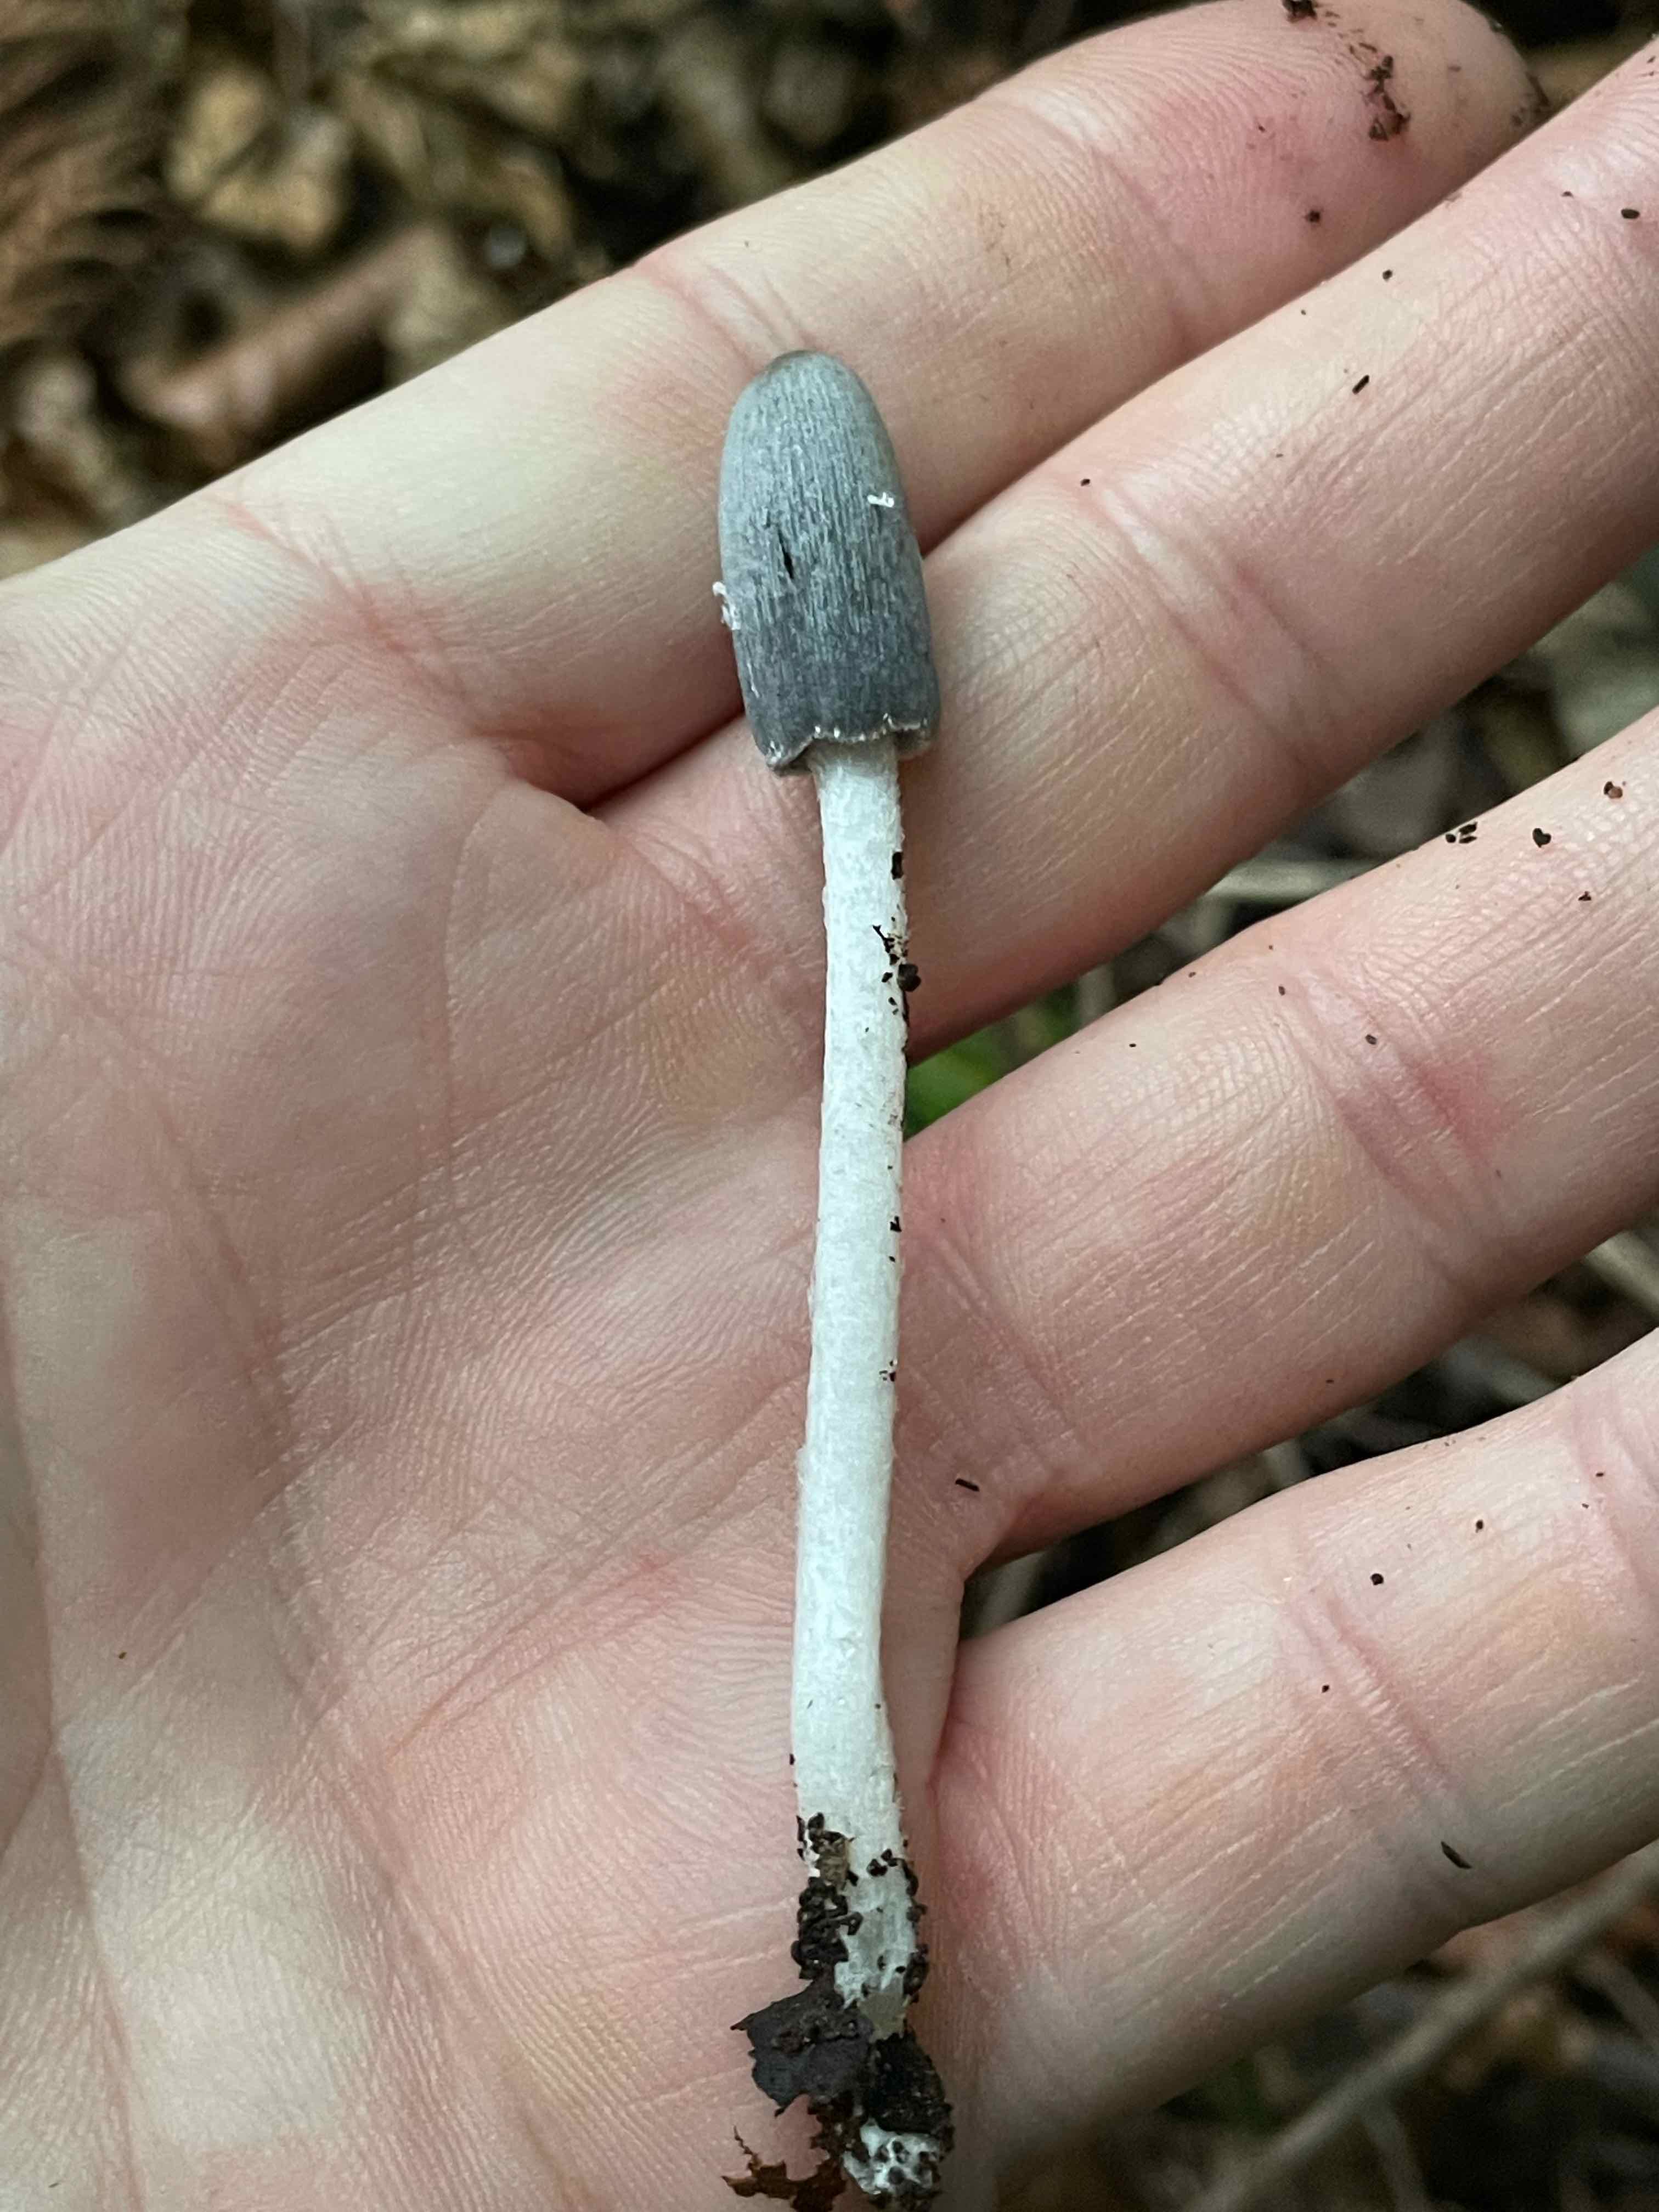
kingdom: Fungi
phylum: Basidiomycota
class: Agaricomycetes
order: Agaricales
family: Psathyrellaceae
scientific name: Psathyrellaceae
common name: mørkhatfamilien
